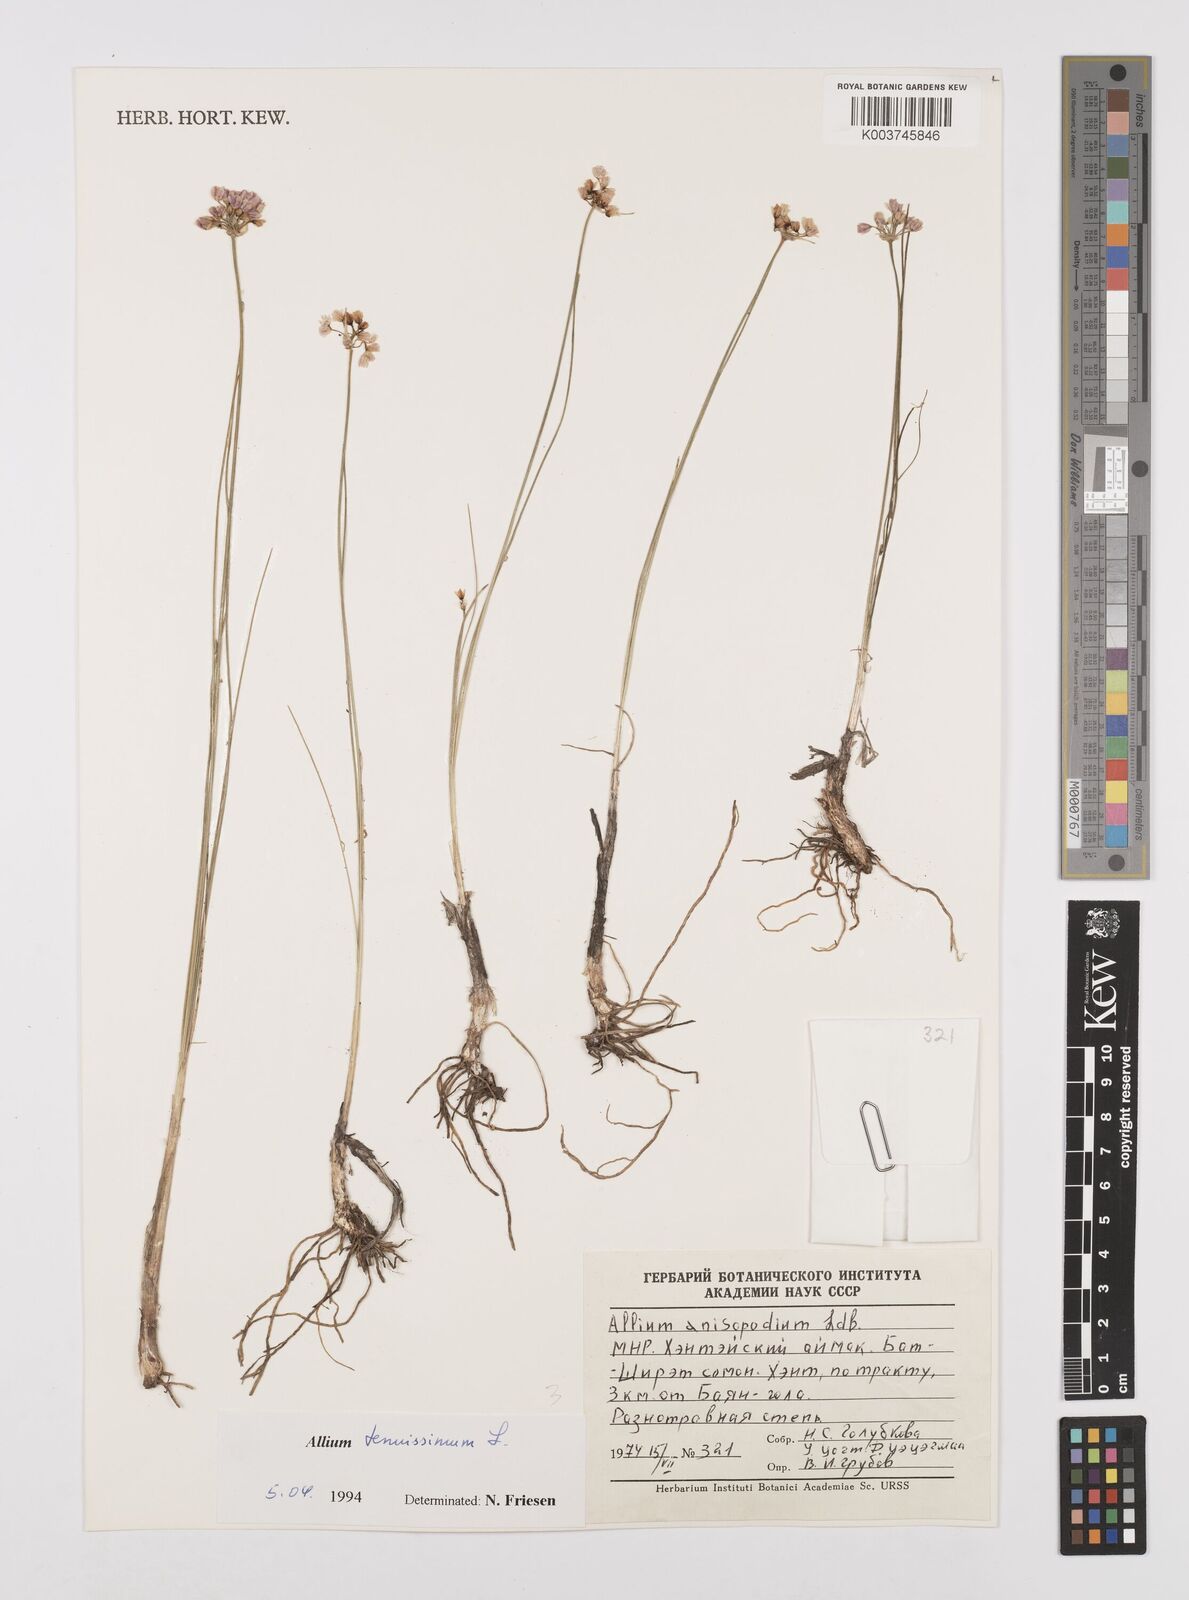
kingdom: Plantae
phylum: Tracheophyta
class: Liliopsida
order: Asparagales
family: Amaryllidaceae
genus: Allium
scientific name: Allium tenuissimum
